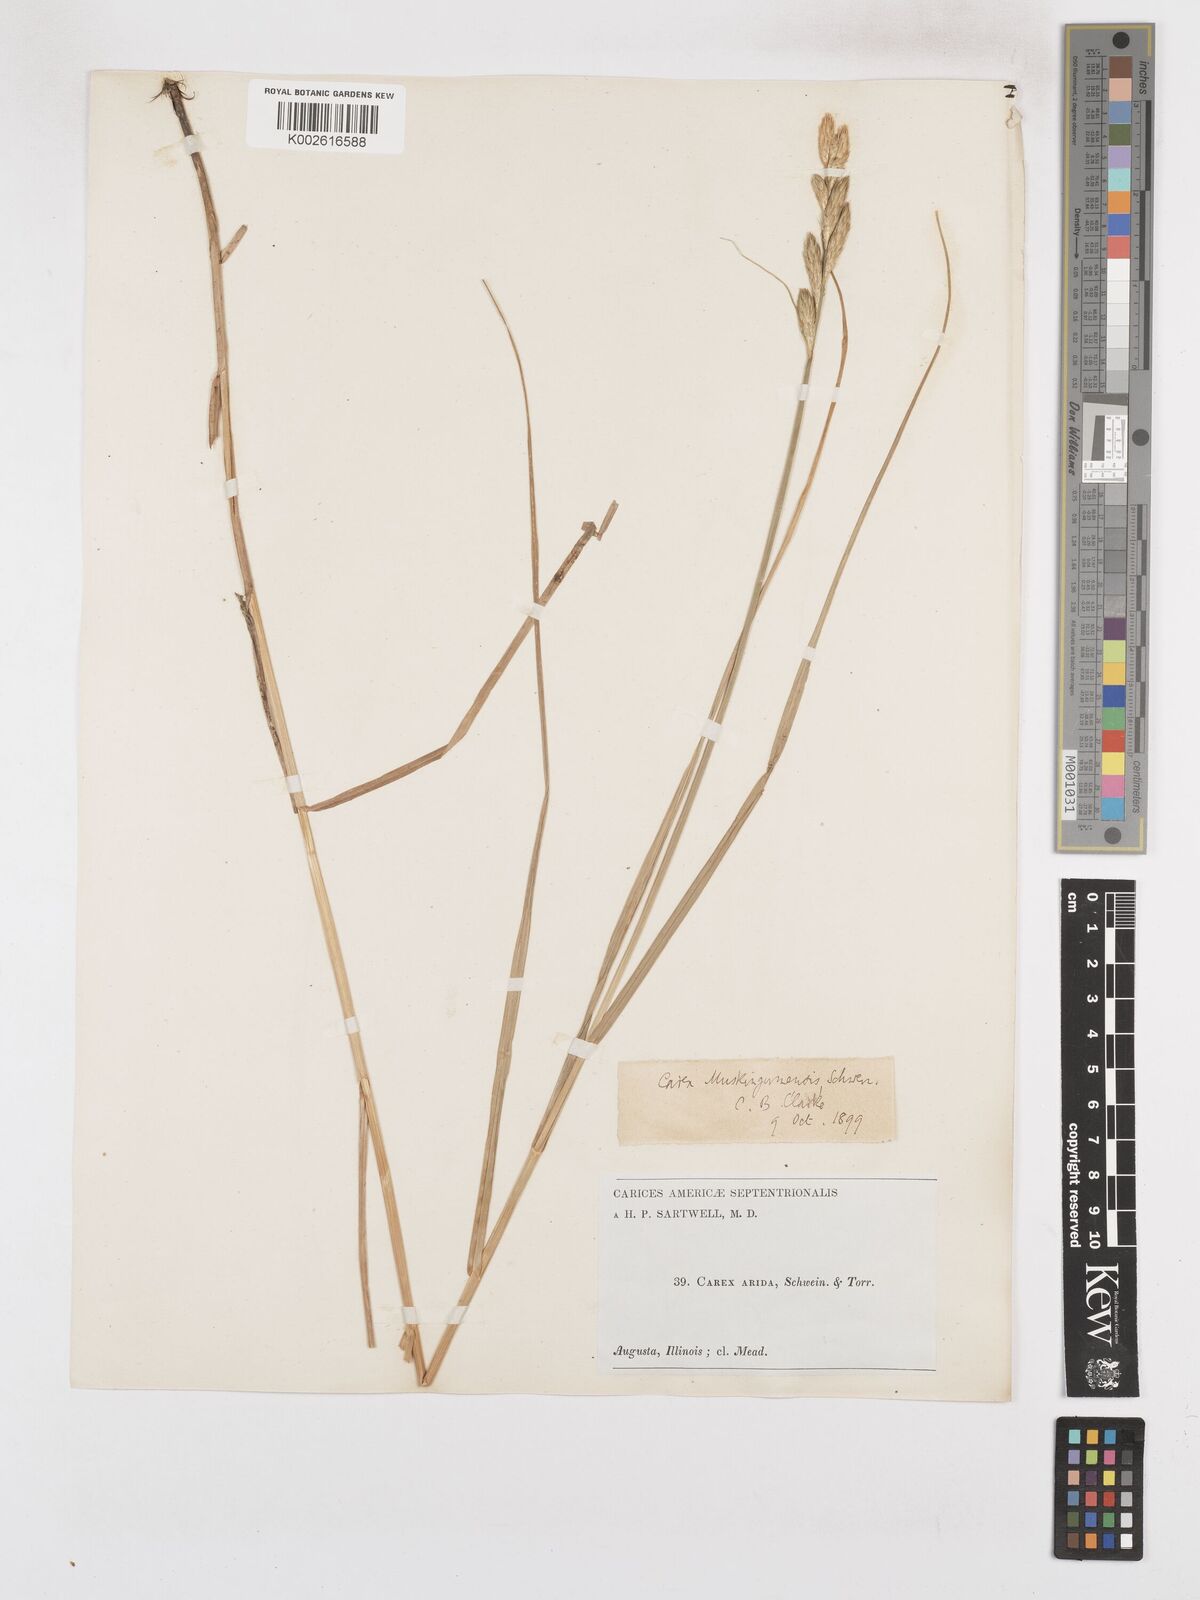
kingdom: Plantae
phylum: Tracheophyta
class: Liliopsida
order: Poales
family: Cyperaceae
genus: Carex
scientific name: Carex muskingumensis
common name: Muskingum sedge
